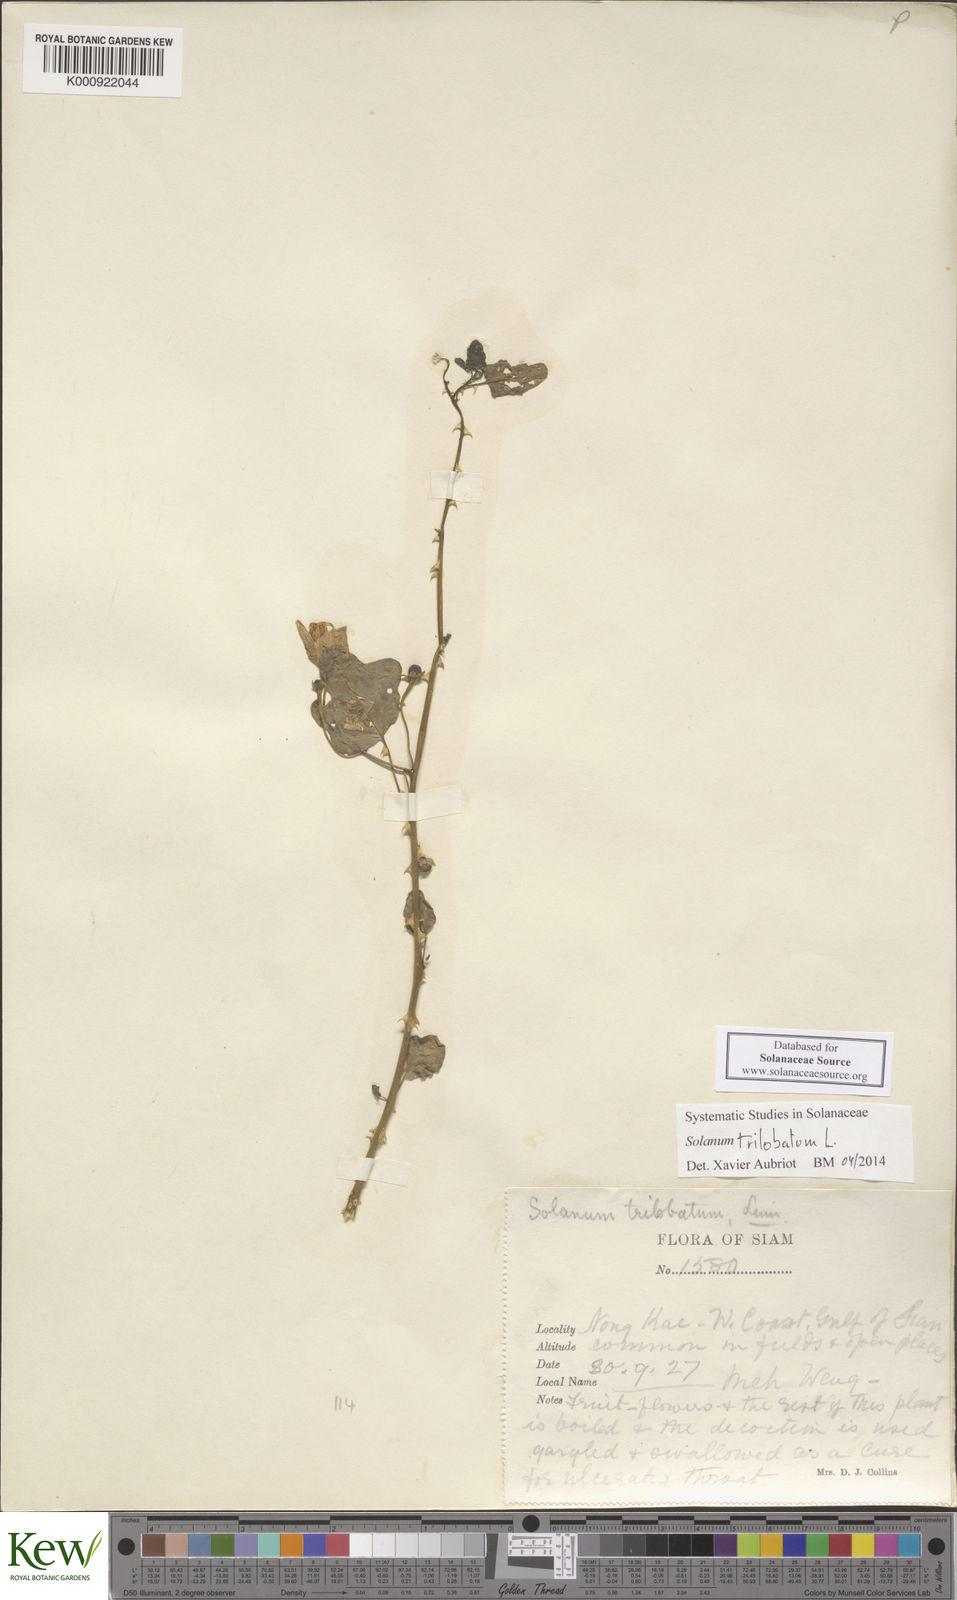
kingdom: Plantae
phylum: Tracheophyta
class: Magnoliopsida
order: Solanales
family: Solanaceae
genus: Solanum
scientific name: Solanum trilobatum
